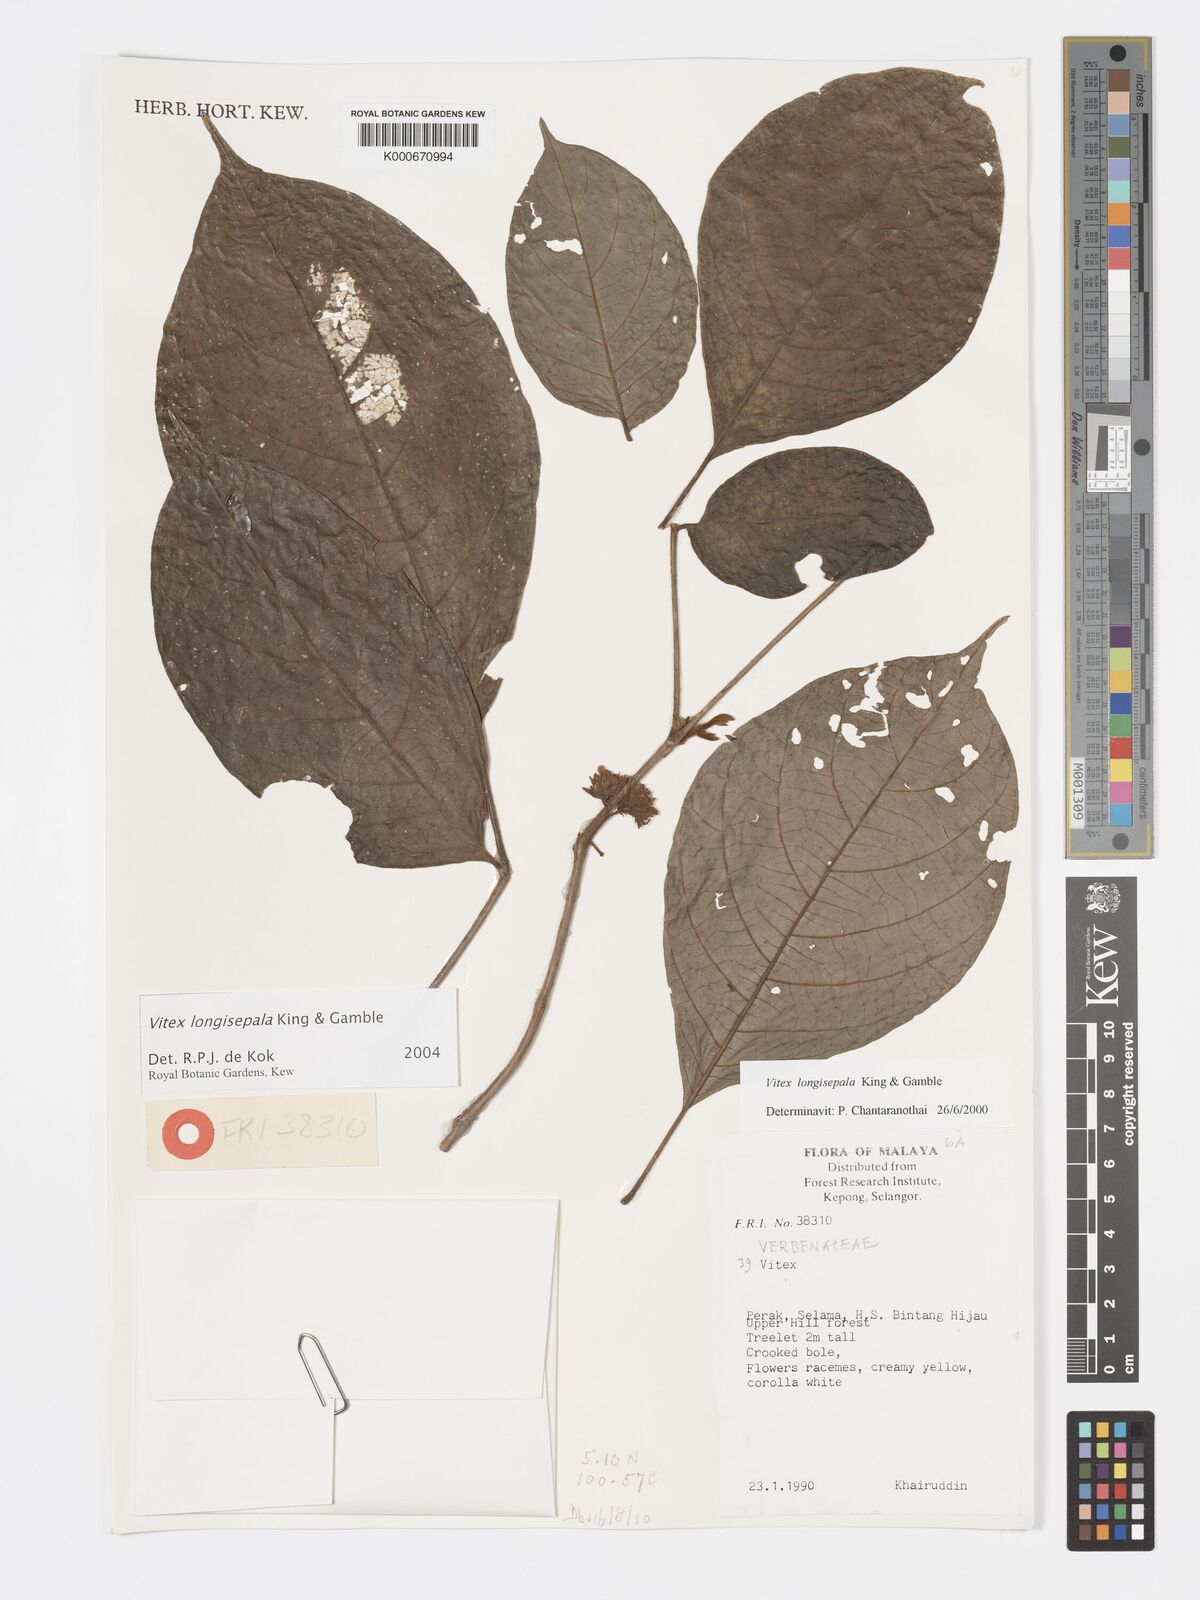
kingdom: Plantae
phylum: Tracheophyta
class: Magnoliopsida
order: Lamiales
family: Lamiaceae
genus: Vitex
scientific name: Vitex longisepala
